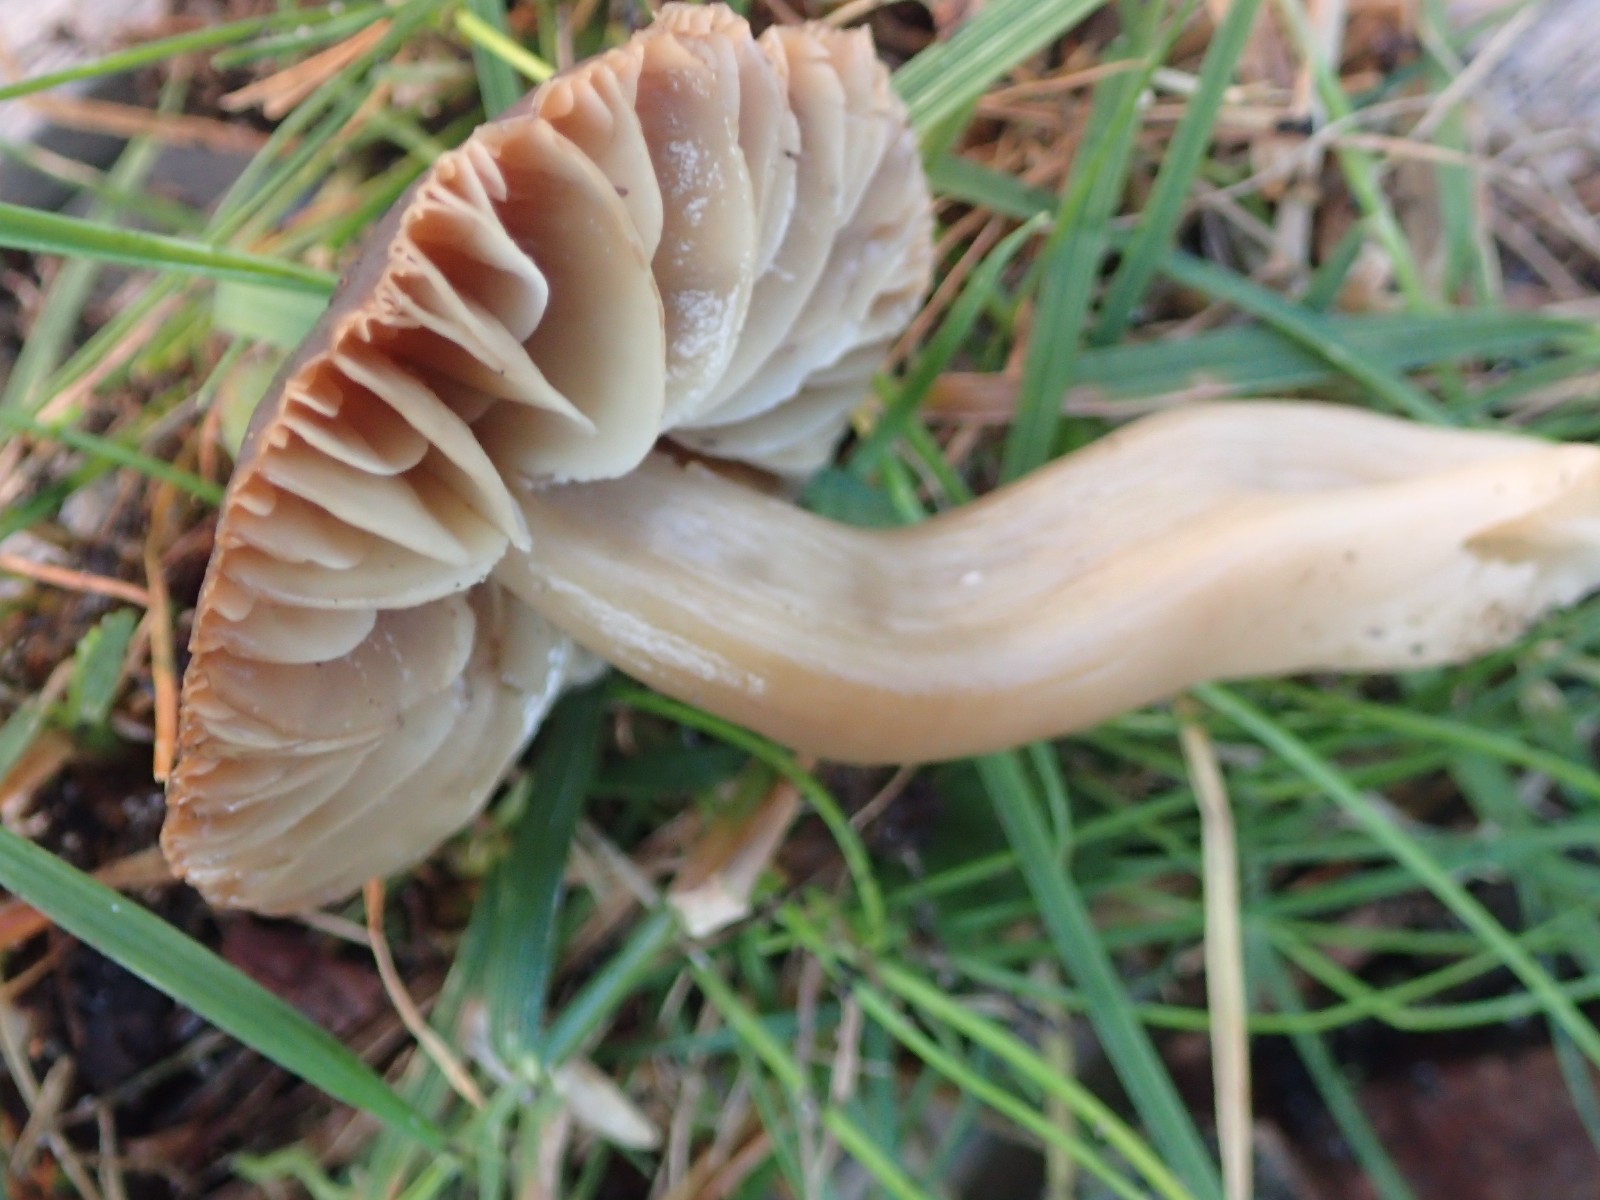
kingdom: Fungi
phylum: Basidiomycota
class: Agaricomycetes
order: Agaricales
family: Hygrophoraceae
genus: Neohygrocybe
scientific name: Neohygrocybe nitrata
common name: stinkende vokshat
